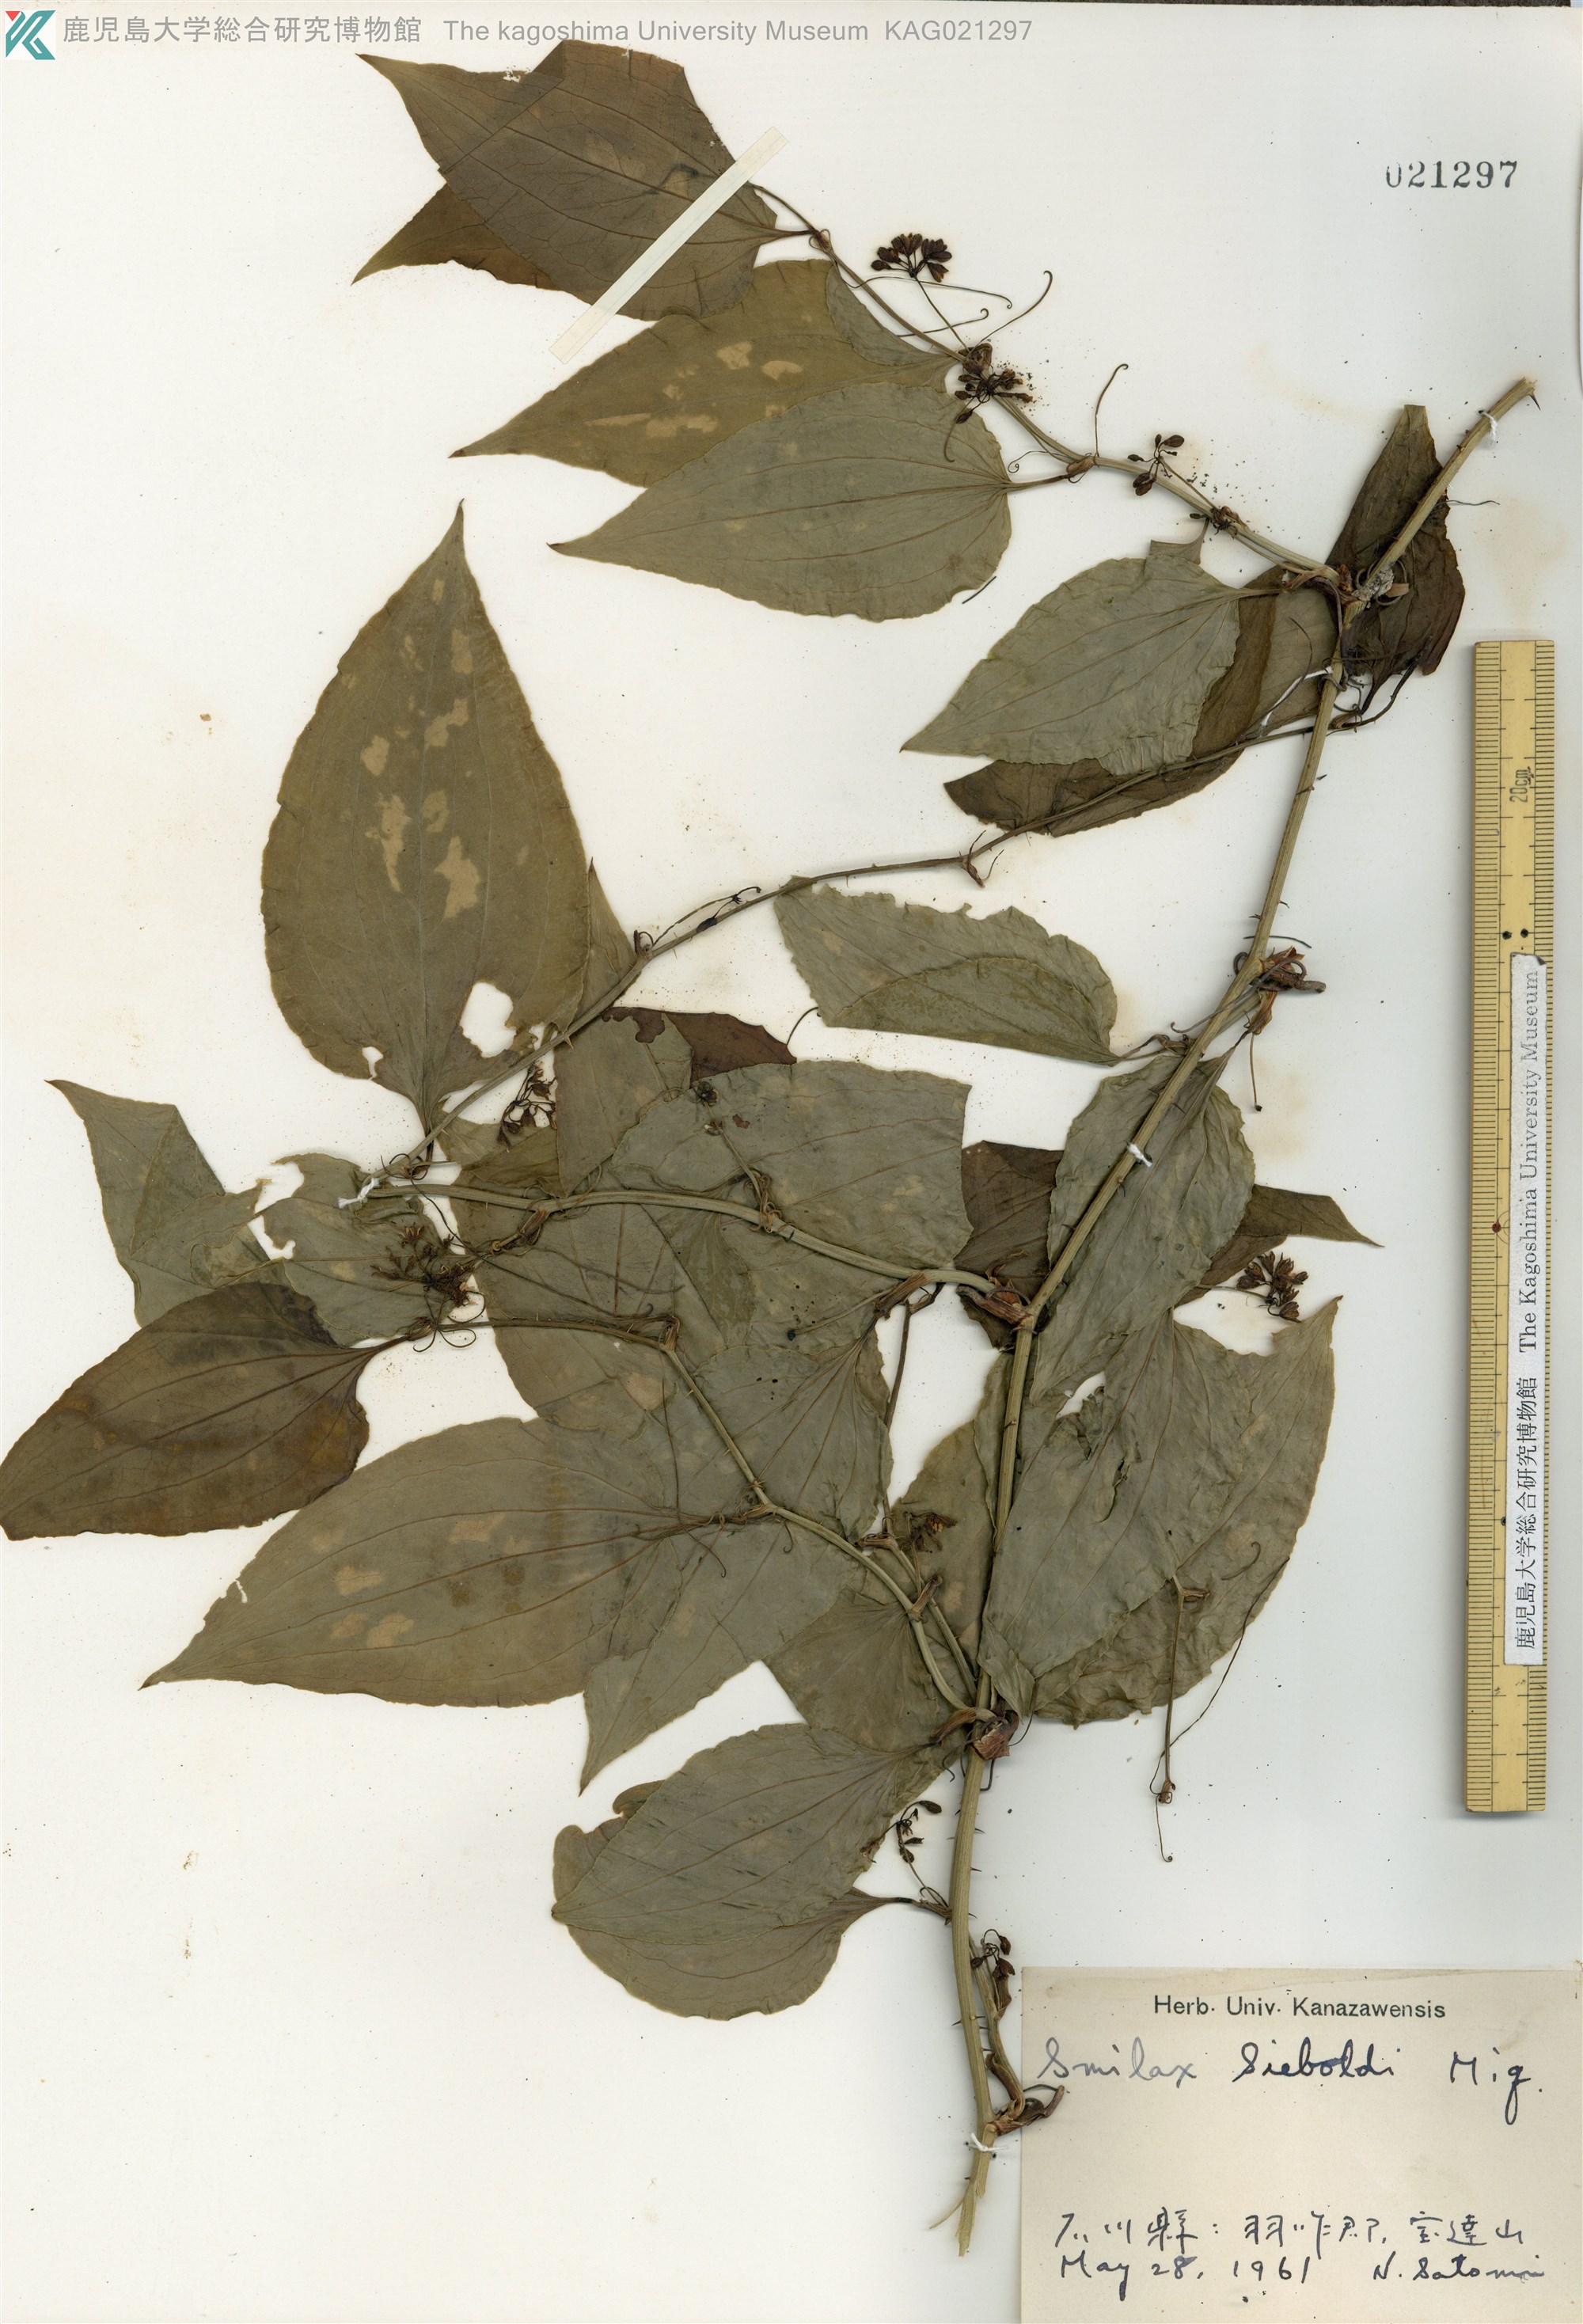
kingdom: Plantae
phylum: Tracheophyta
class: Liliopsida
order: Liliales
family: Smilacaceae
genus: Smilax
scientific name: Smilax sieboldii
